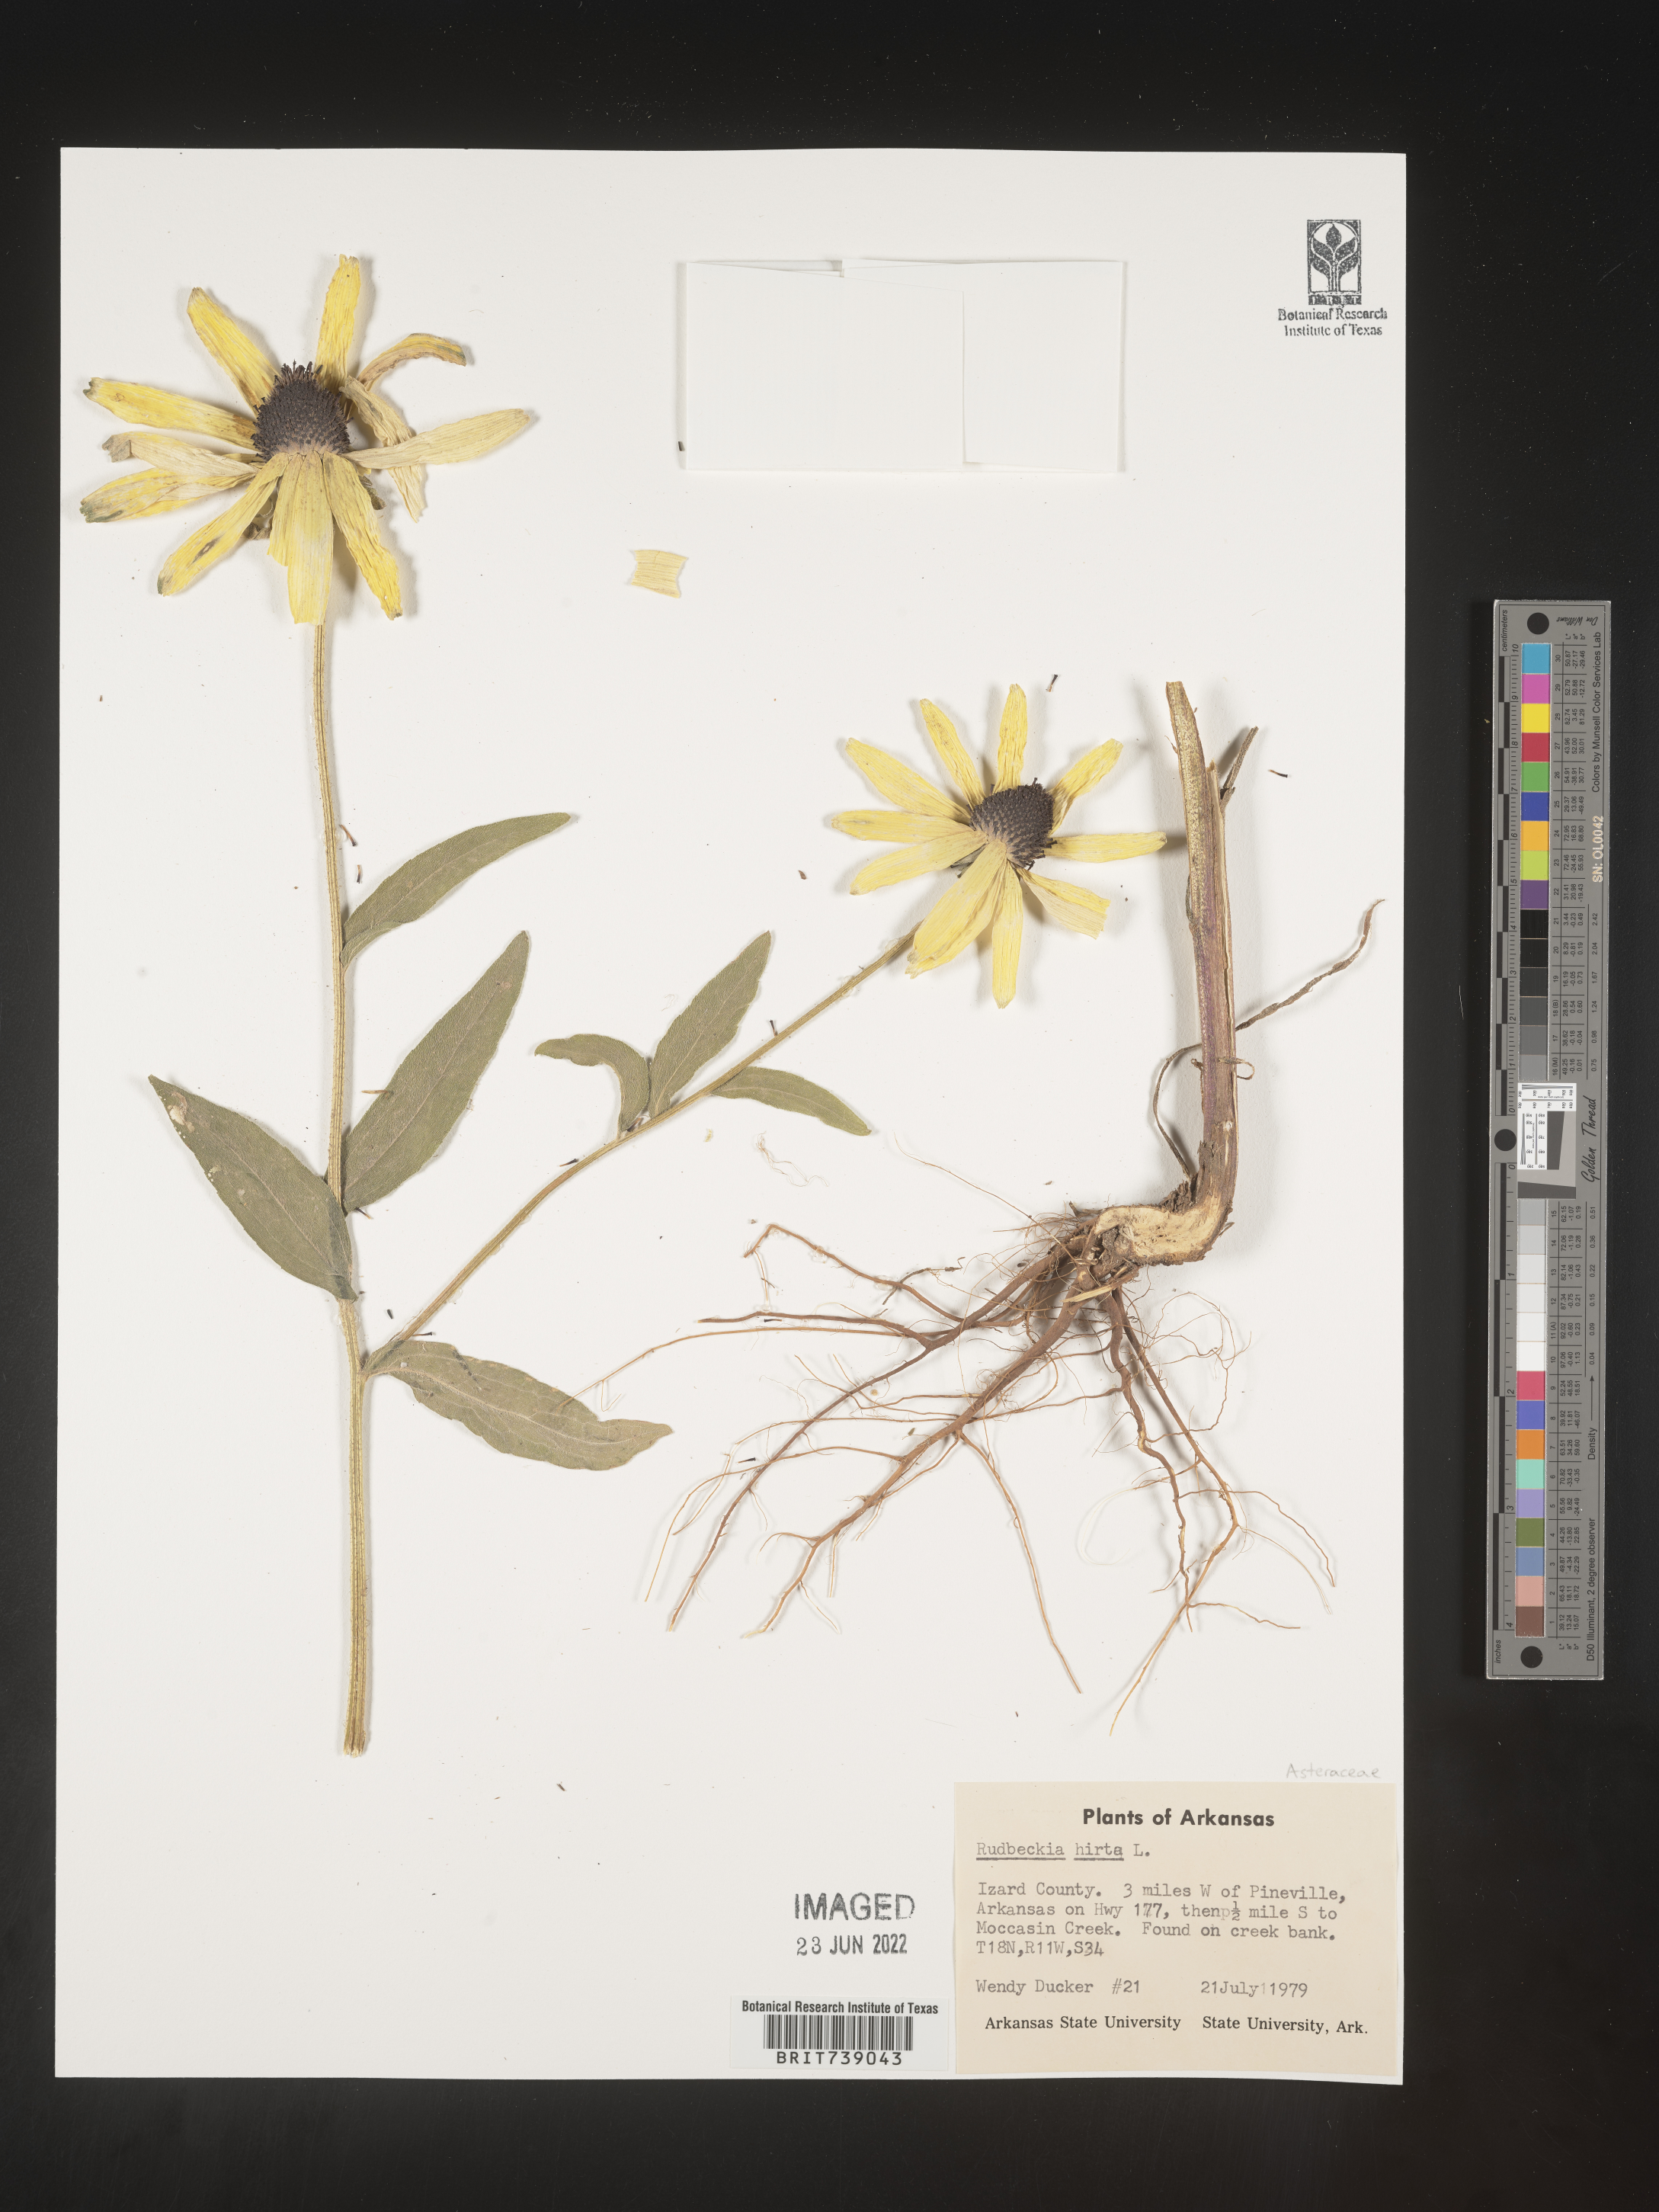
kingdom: Plantae
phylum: Tracheophyta
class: Magnoliopsida
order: Asterales
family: Asteraceae
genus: Rudbeckia
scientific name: Rudbeckia hirta
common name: Black-eyed-susan
